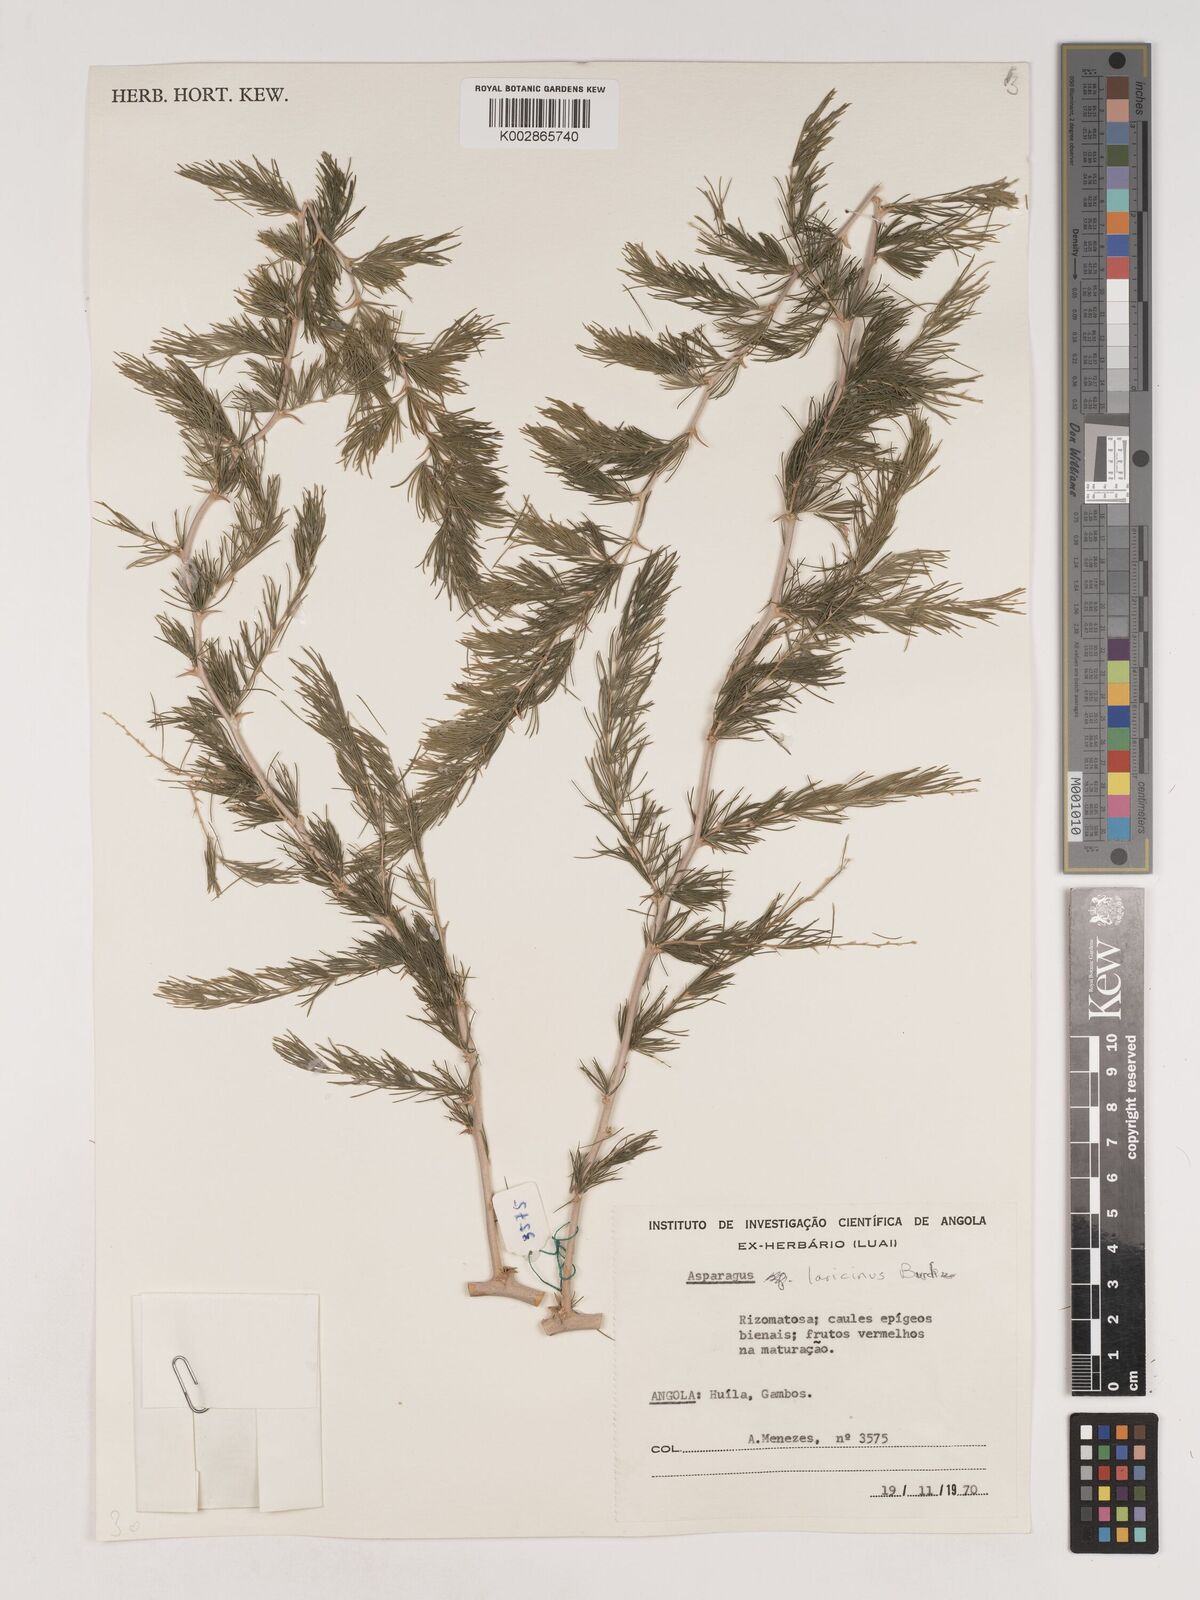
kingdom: Plantae
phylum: Tracheophyta
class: Liliopsida
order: Asparagales
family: Asparagaceae
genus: Asparagus
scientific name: Asparagus laricinus
